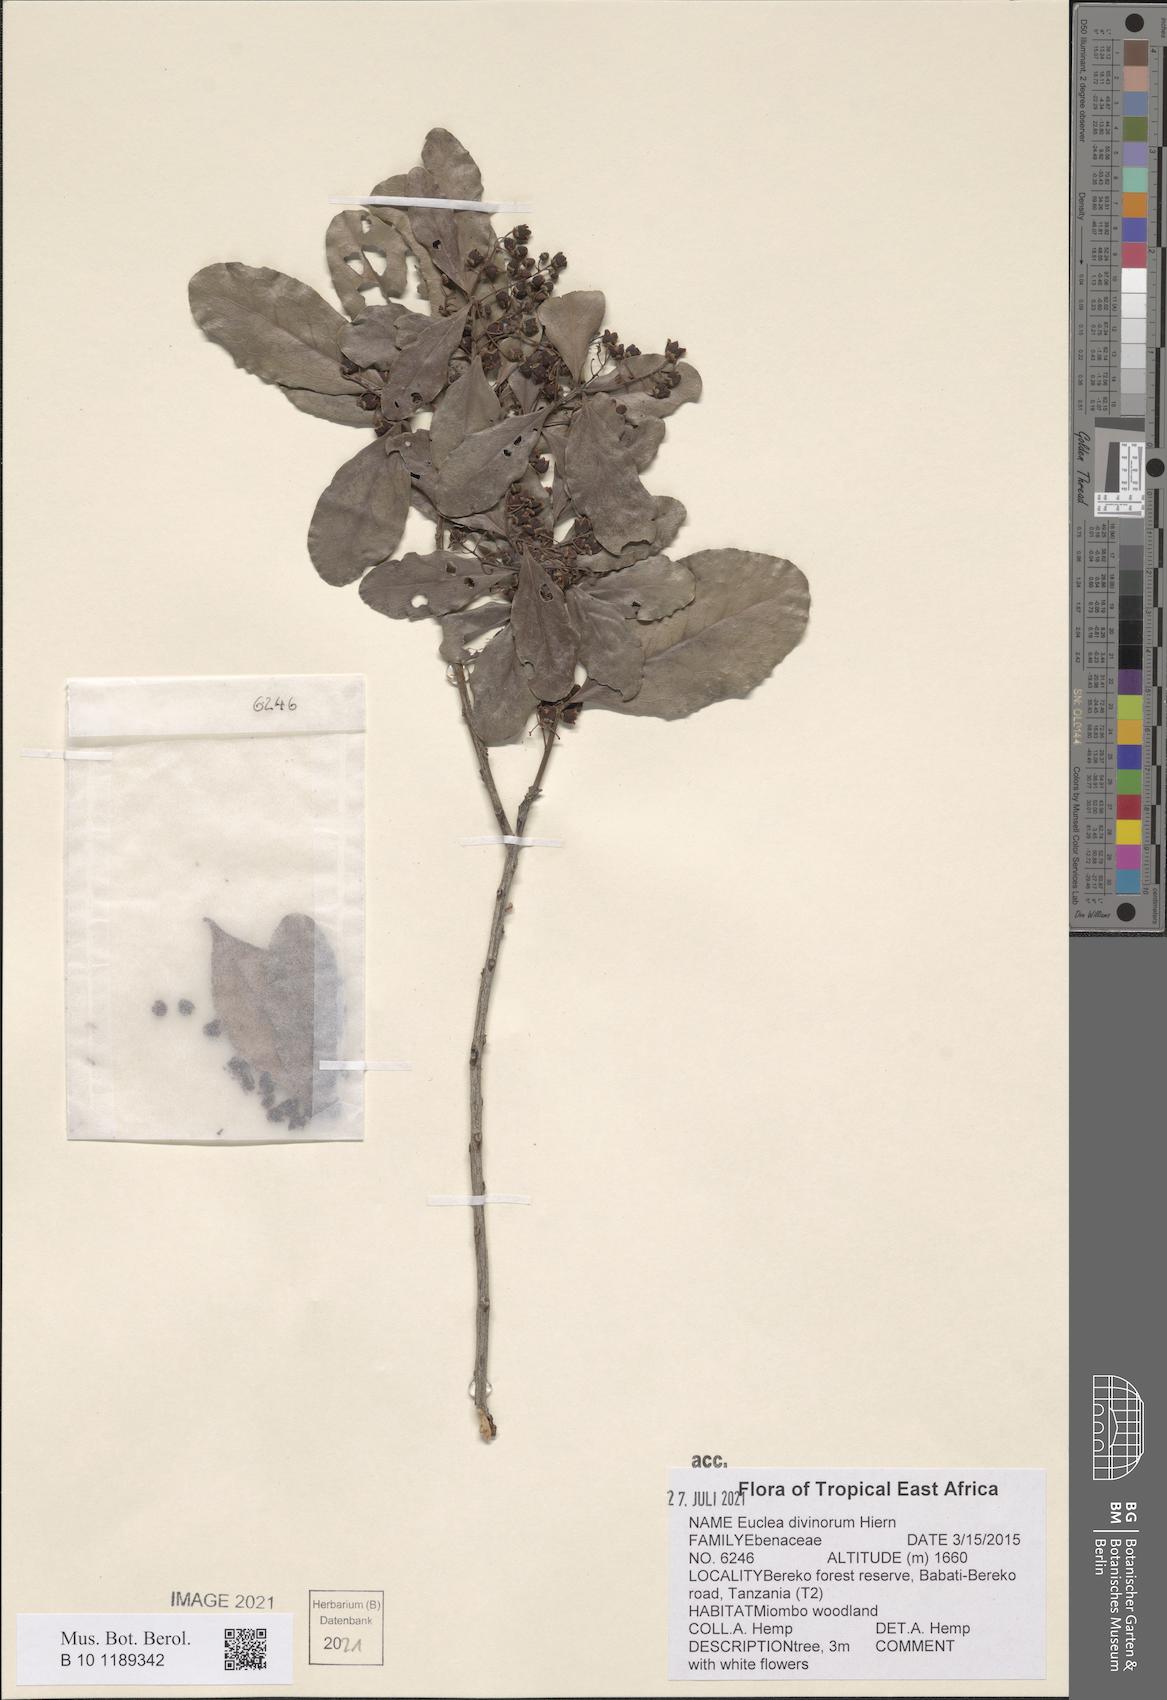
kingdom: Plantae
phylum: Tracheophyta
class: Magnoliopsida
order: Ericales
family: Ebenaceae
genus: Euclea
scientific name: Euclea divinorum
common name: Diamond-leaved euclea
